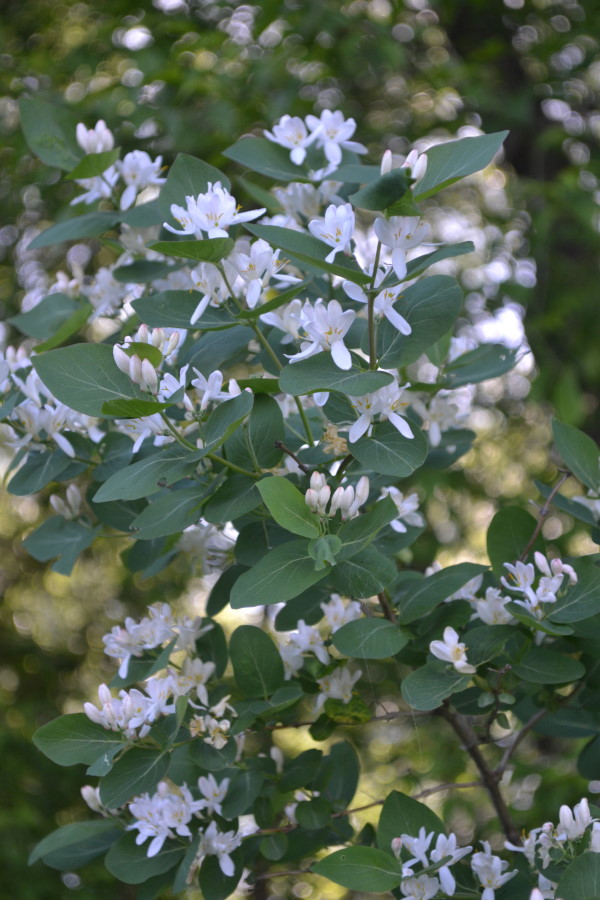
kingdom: Plantae
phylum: Tracheophyta
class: Magnoliopsida
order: Dipsacales
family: Caprifoliaceae
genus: Lonicera
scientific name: Lonicera tatarica
